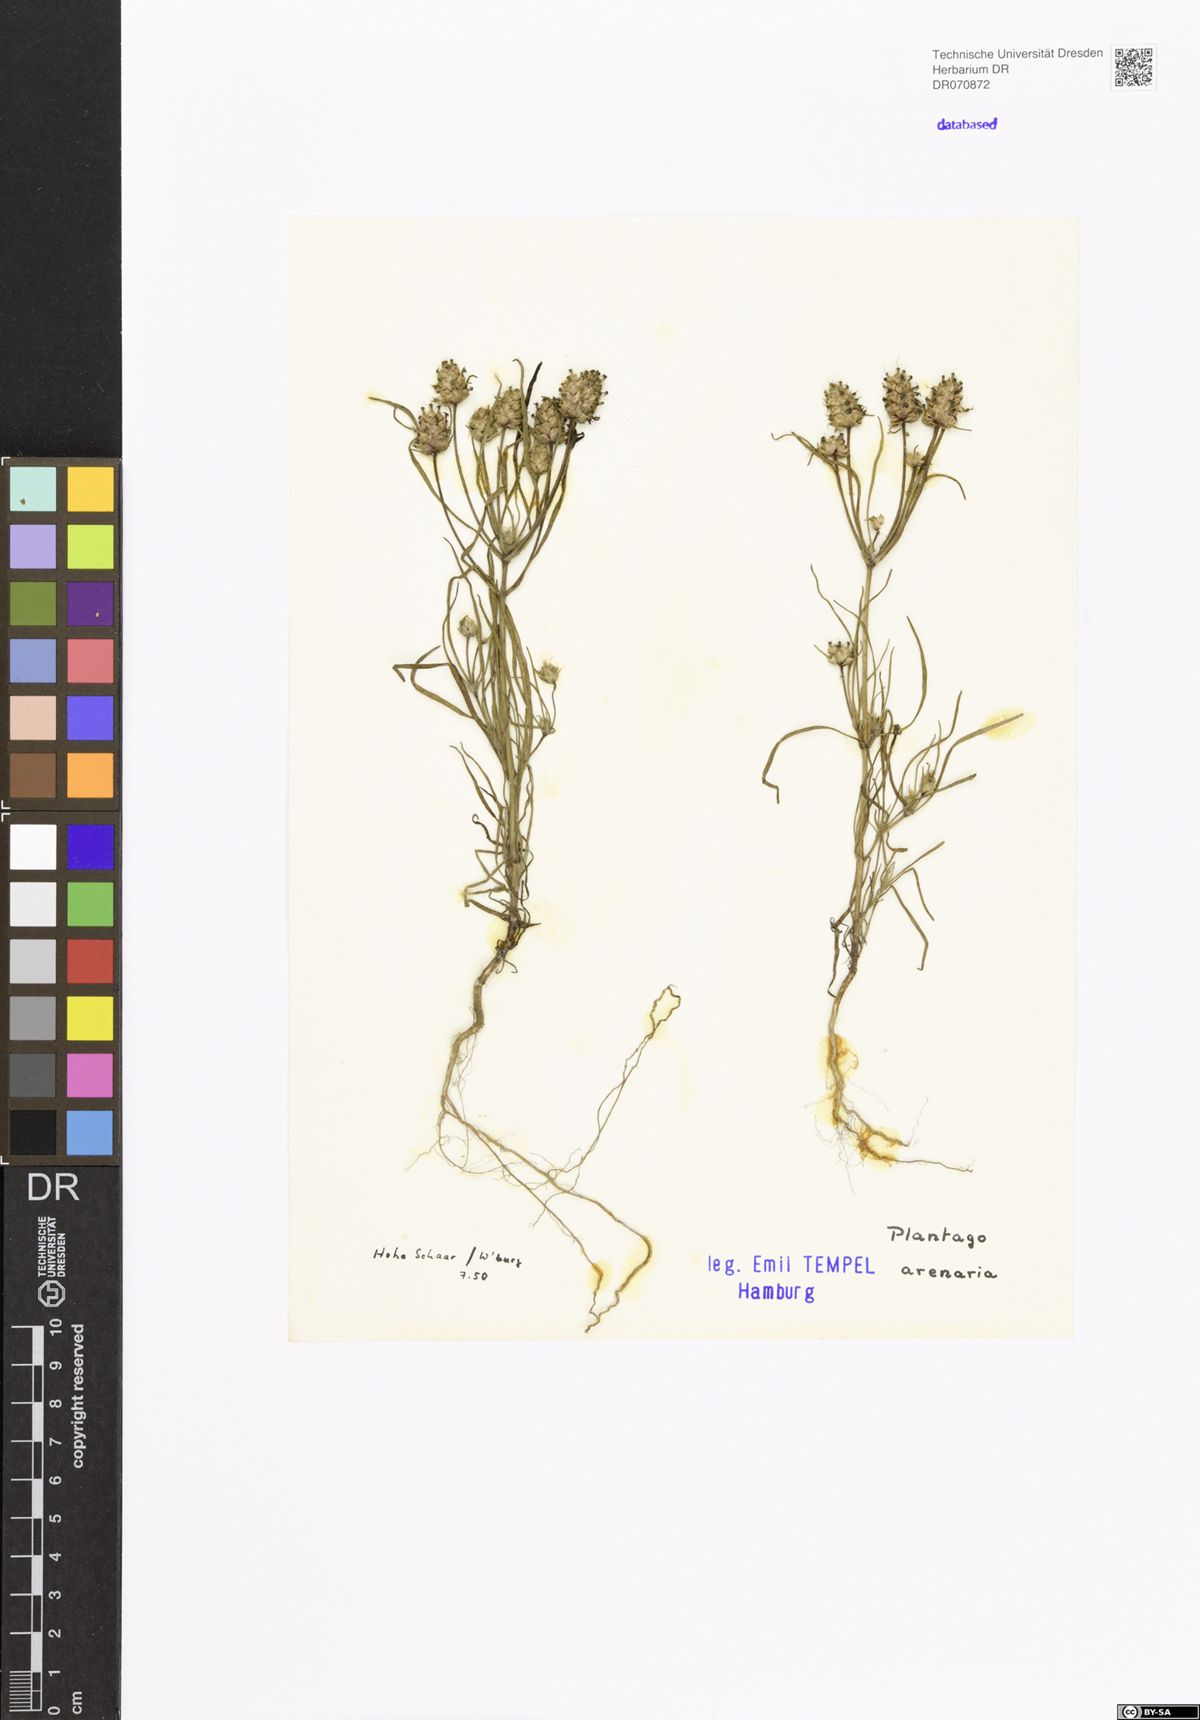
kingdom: Plantae
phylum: Tracheophyta
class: Magnoliopsida
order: Lamiales
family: Plantaginaceae
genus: Plantago
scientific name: Plantago arenaria
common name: Branched plantain
